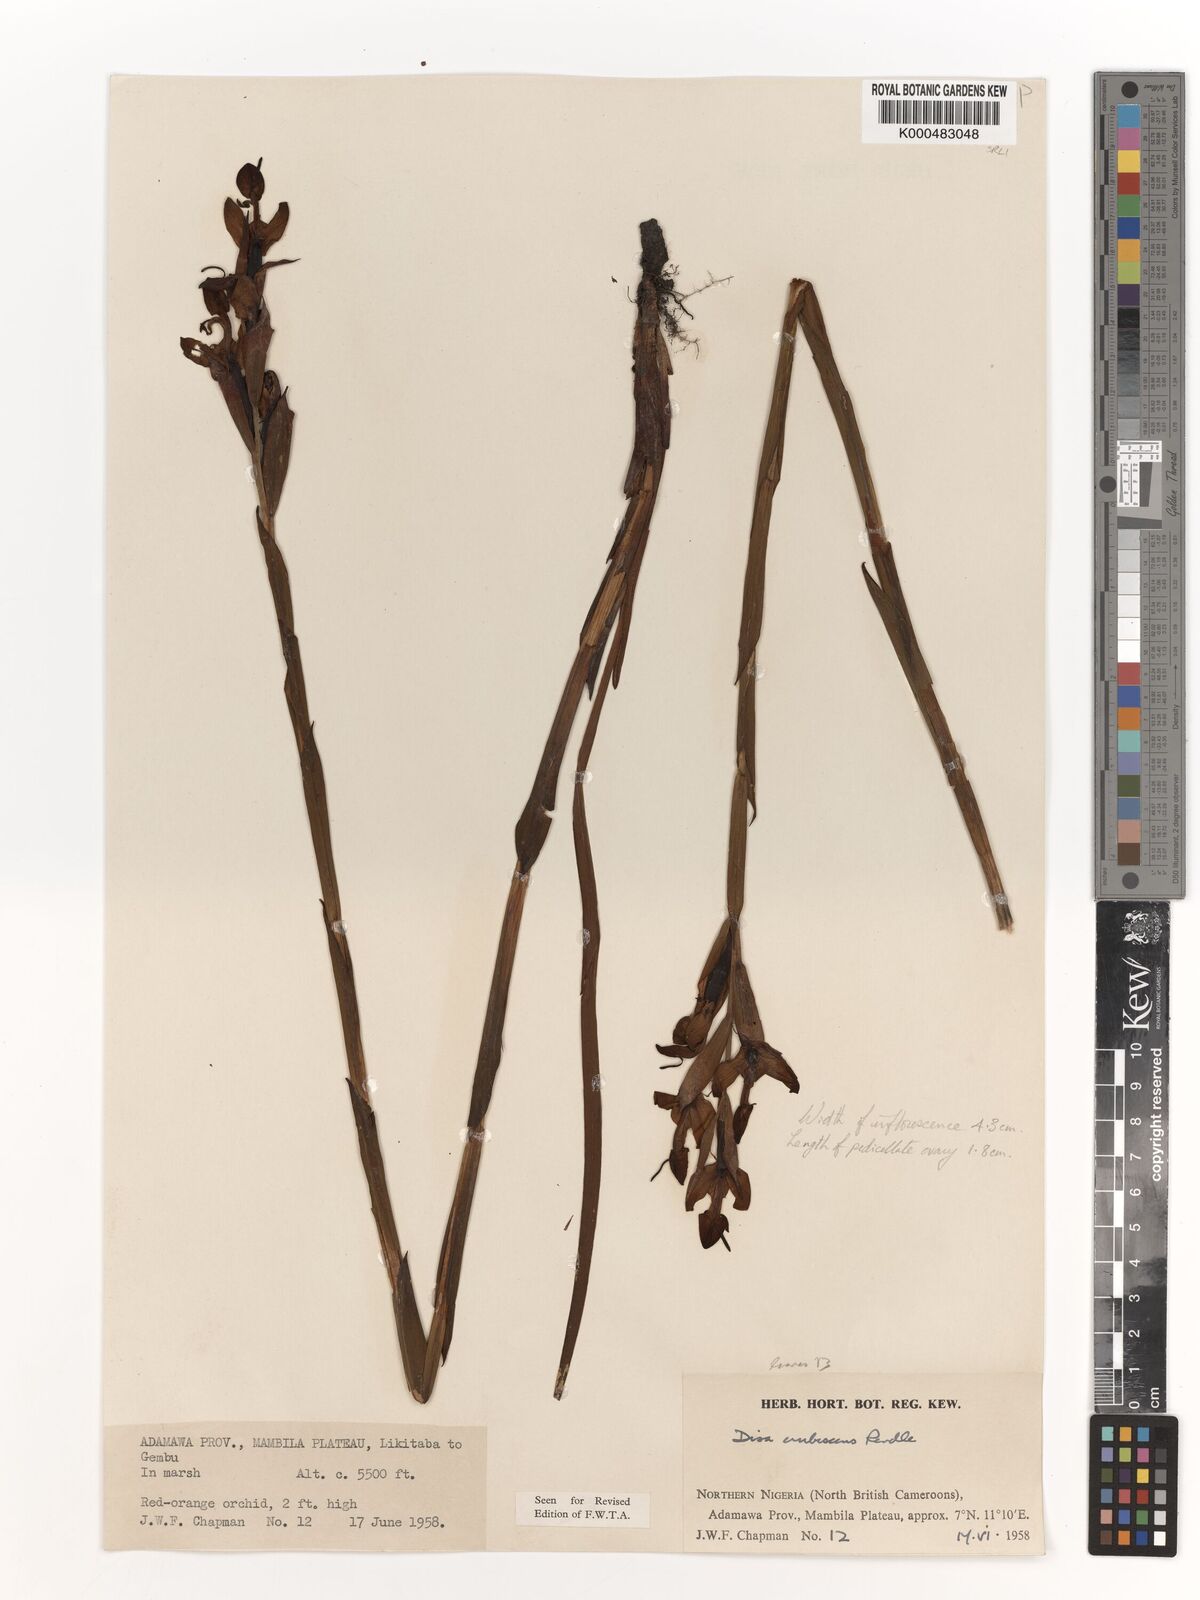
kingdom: Plantae
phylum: Tracheophyta
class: Liliopsida
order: Asparagales
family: Orchidaceae
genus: Disa
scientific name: Disa erubescens
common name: The rose disa
